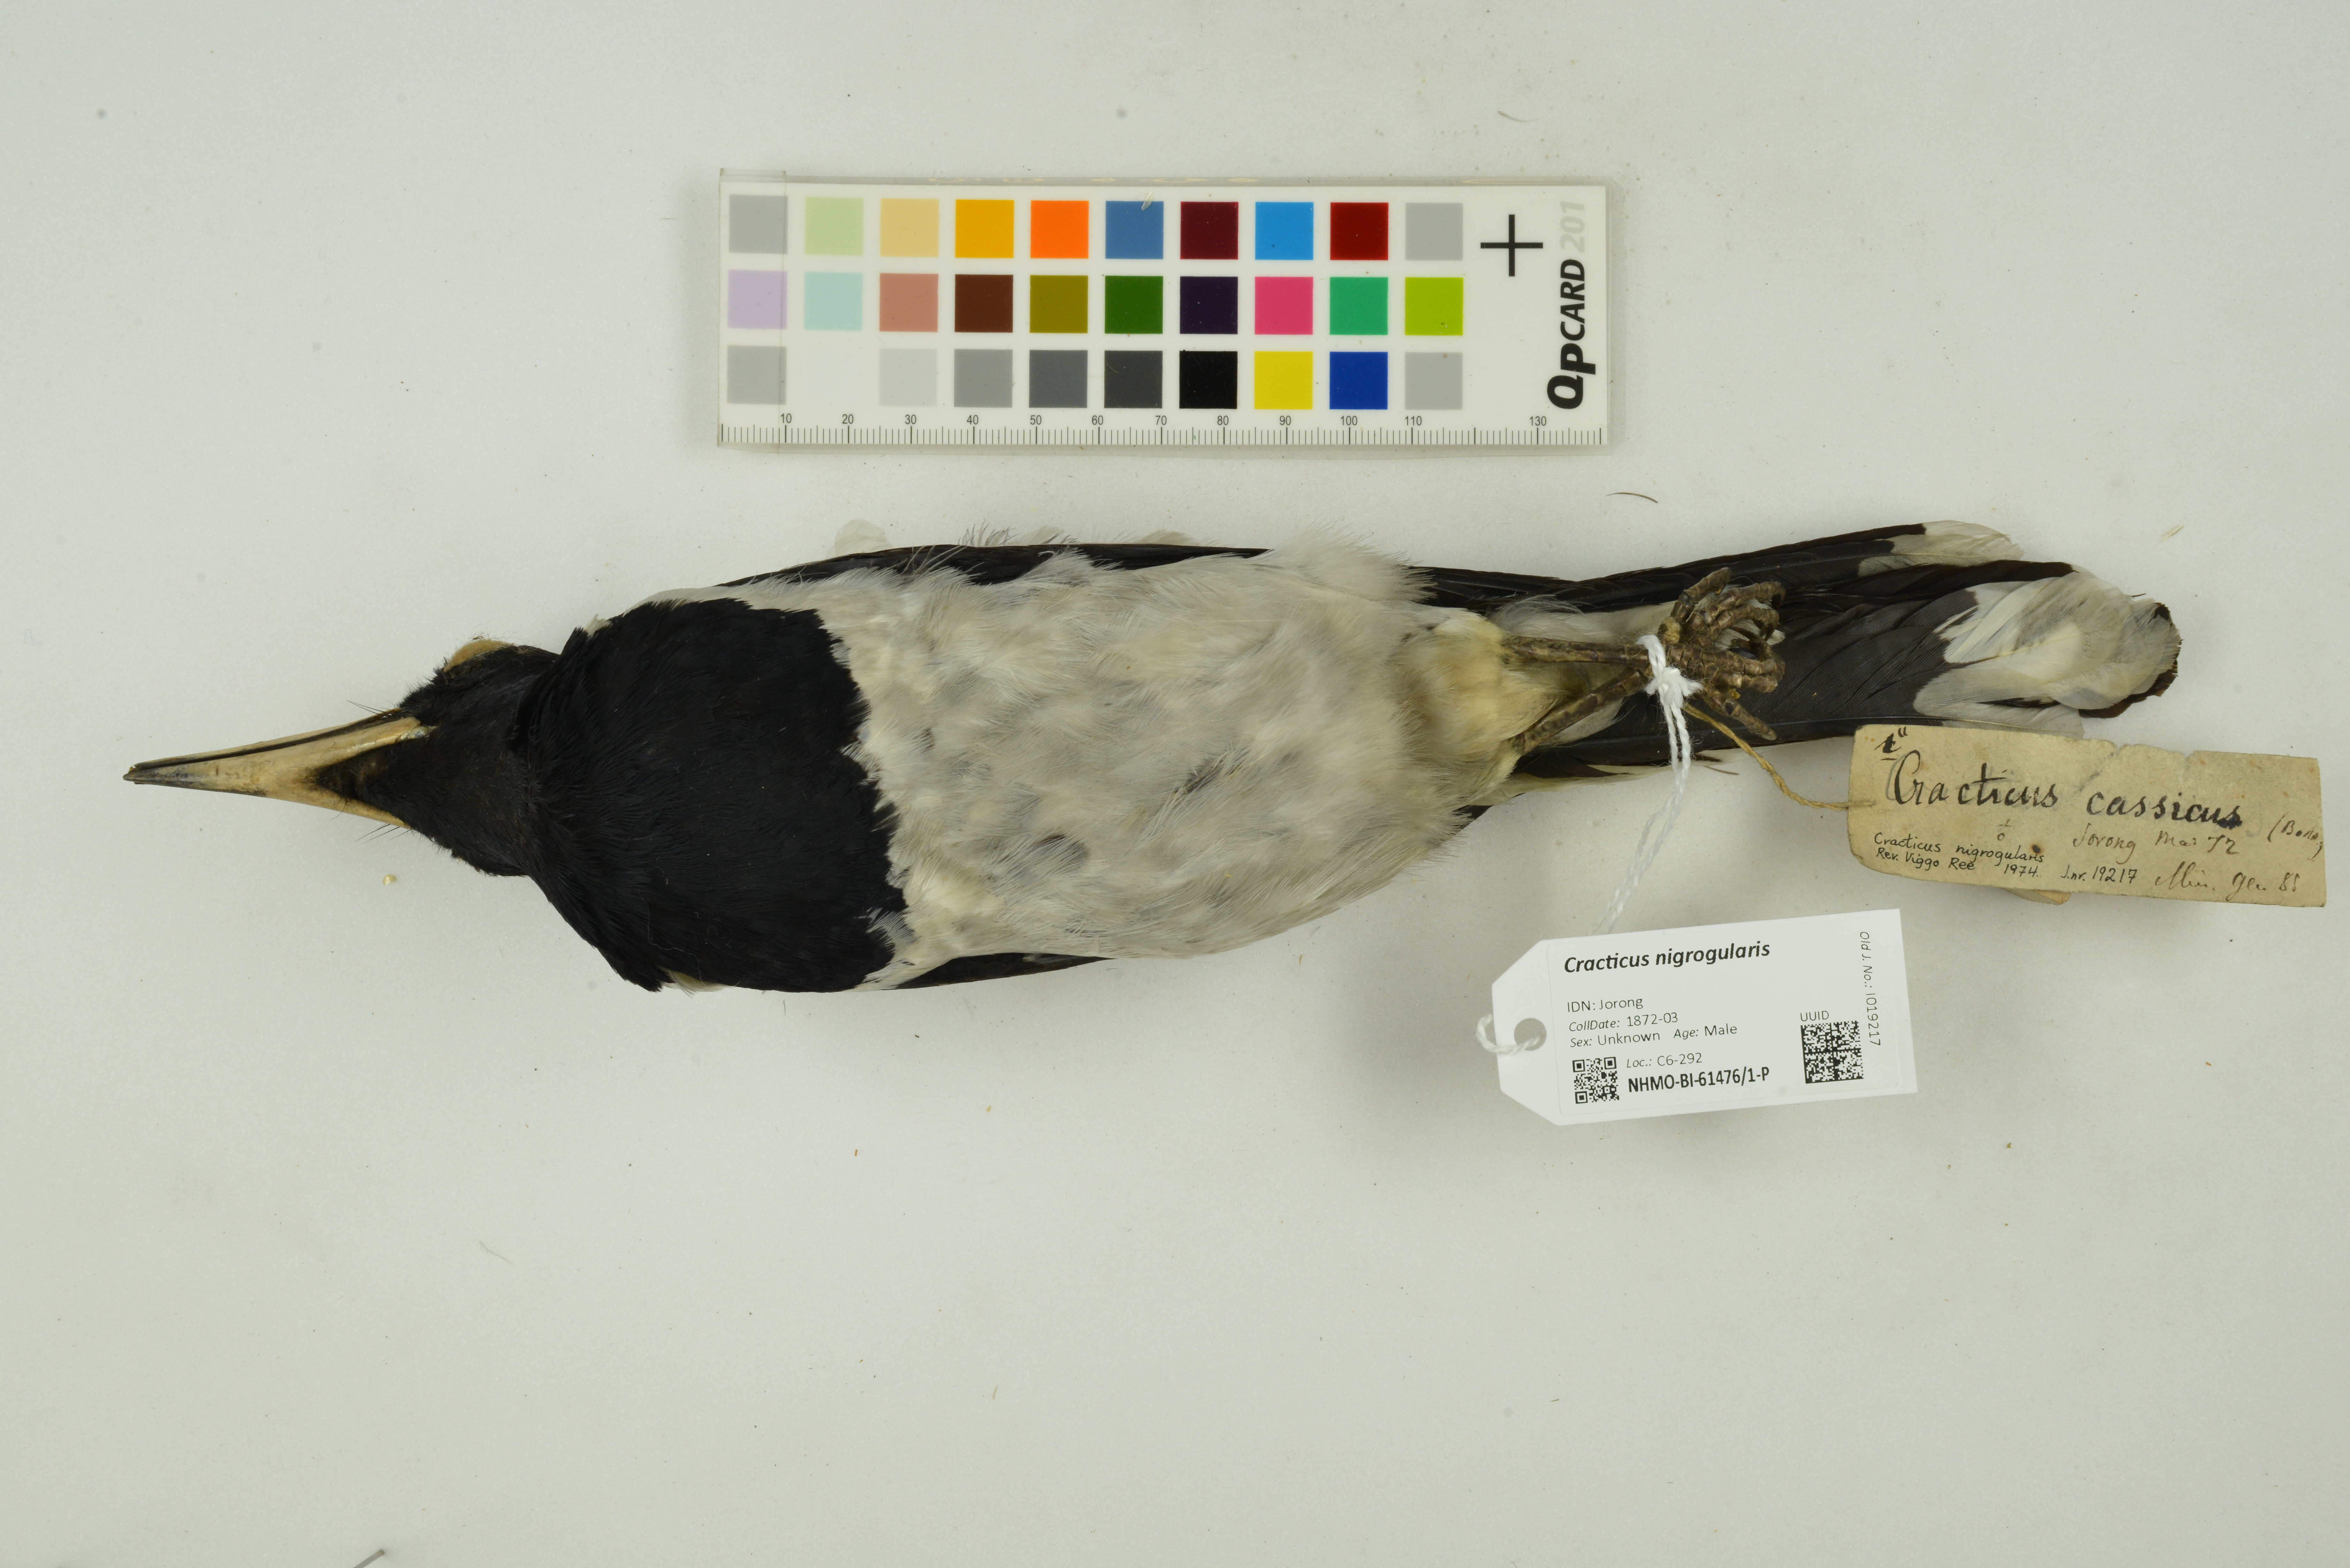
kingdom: Animalia
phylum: Chordata
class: Aves
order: Passeriformes
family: Cracticidae
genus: Cracticus
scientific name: Cracticus nigrogularis
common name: Pied butcherbird
